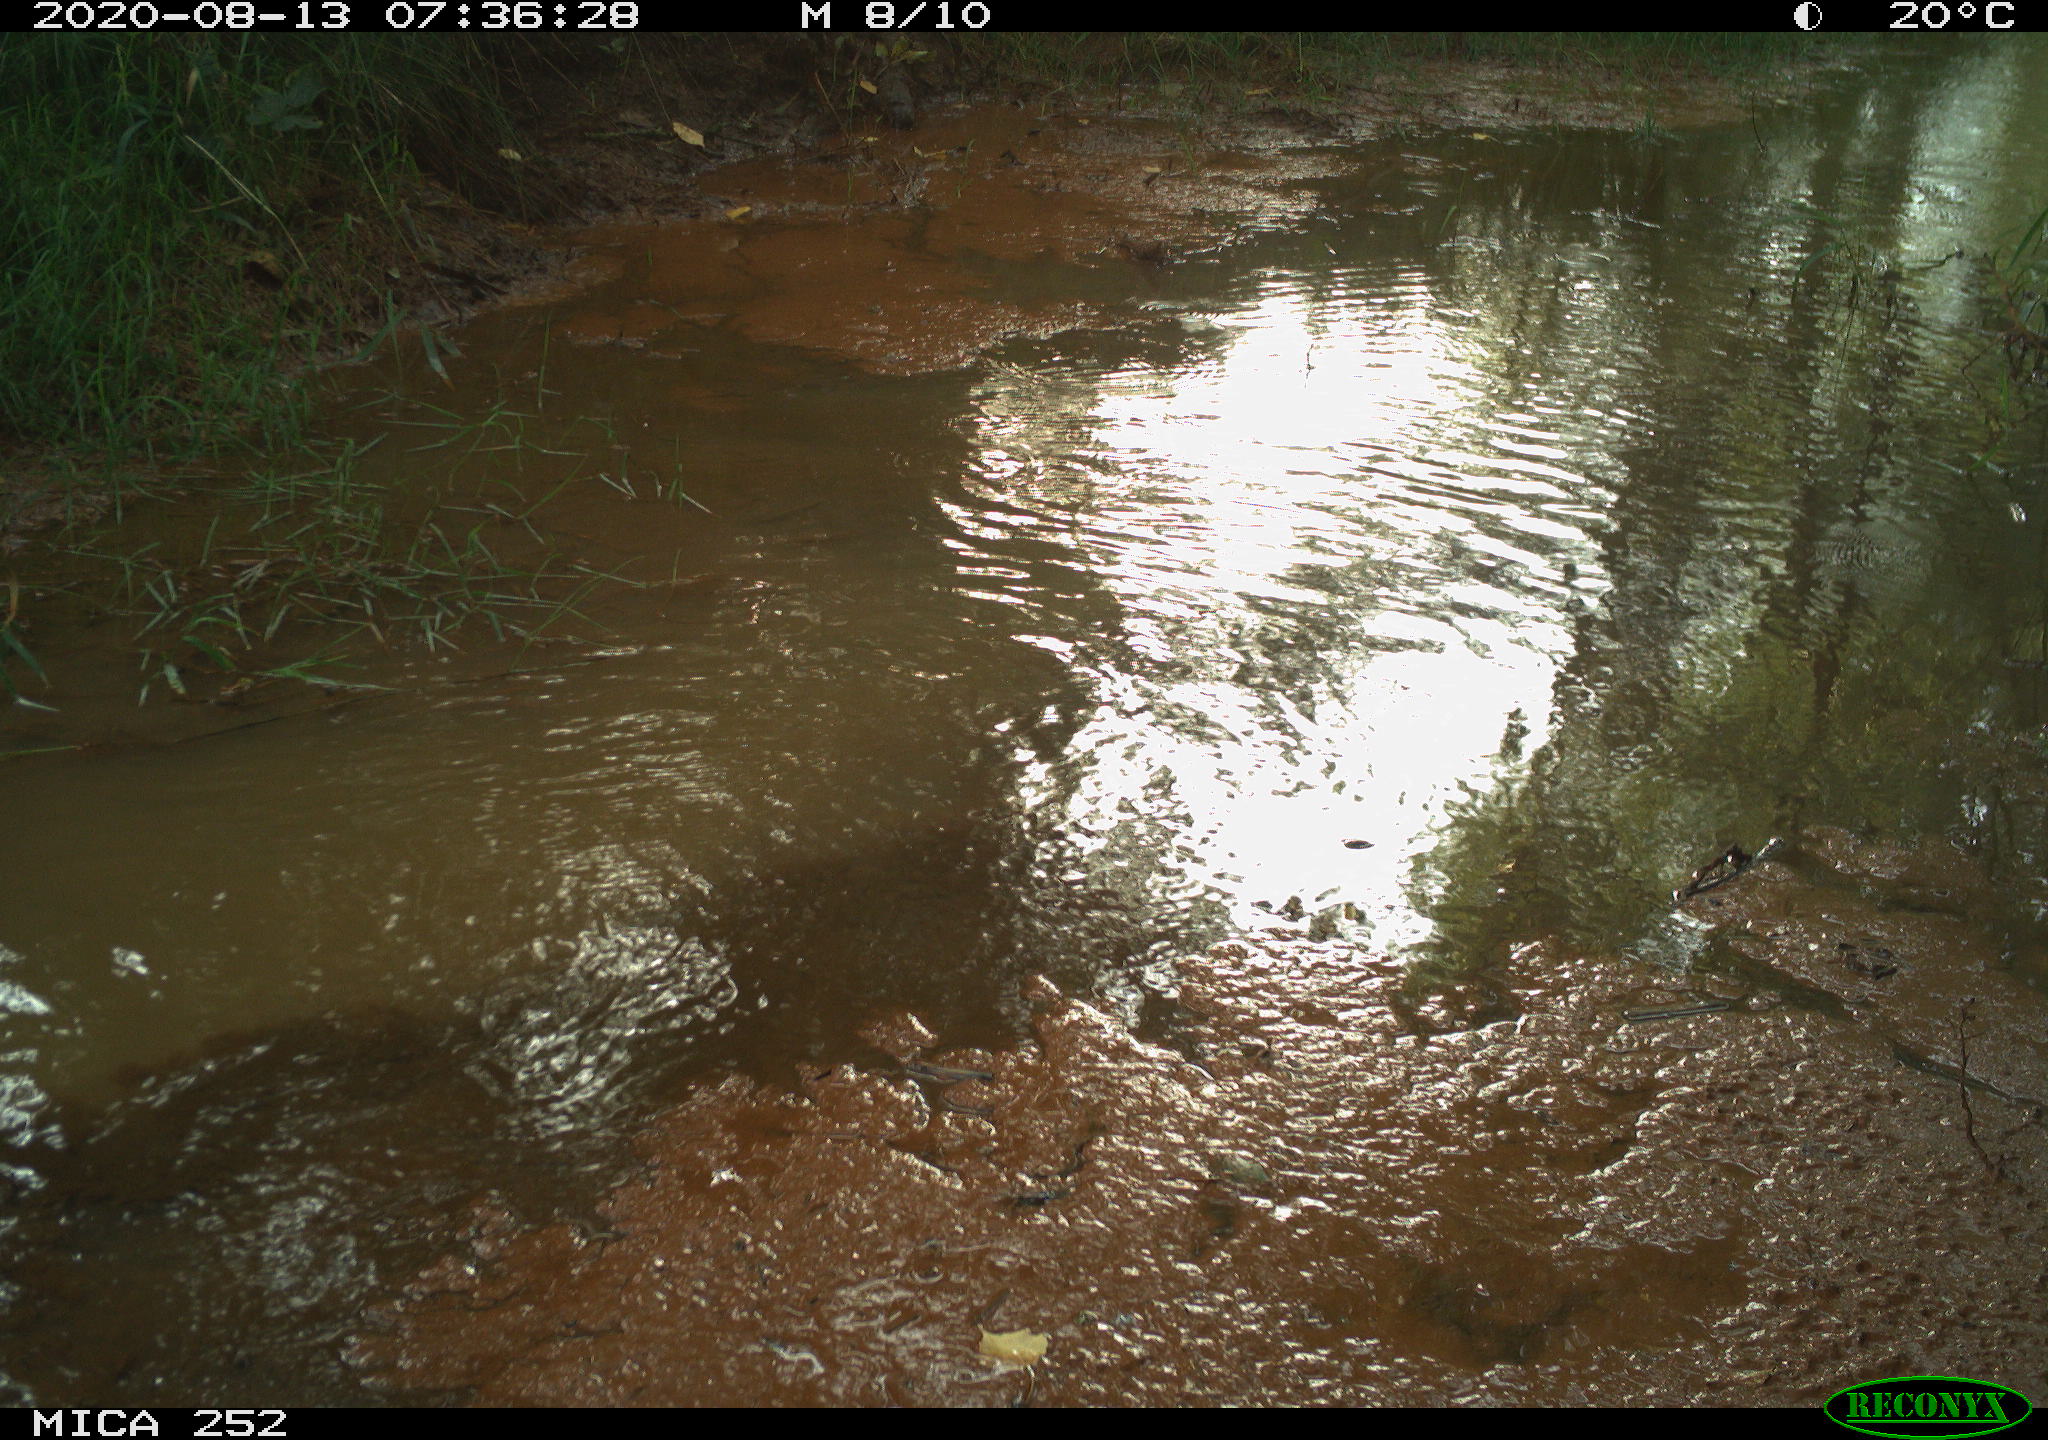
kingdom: Animalia
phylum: Chordata
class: Aves
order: Anseriformes
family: Anatidae
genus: Aix
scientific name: Aix galericulata
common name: Mandarin duck
